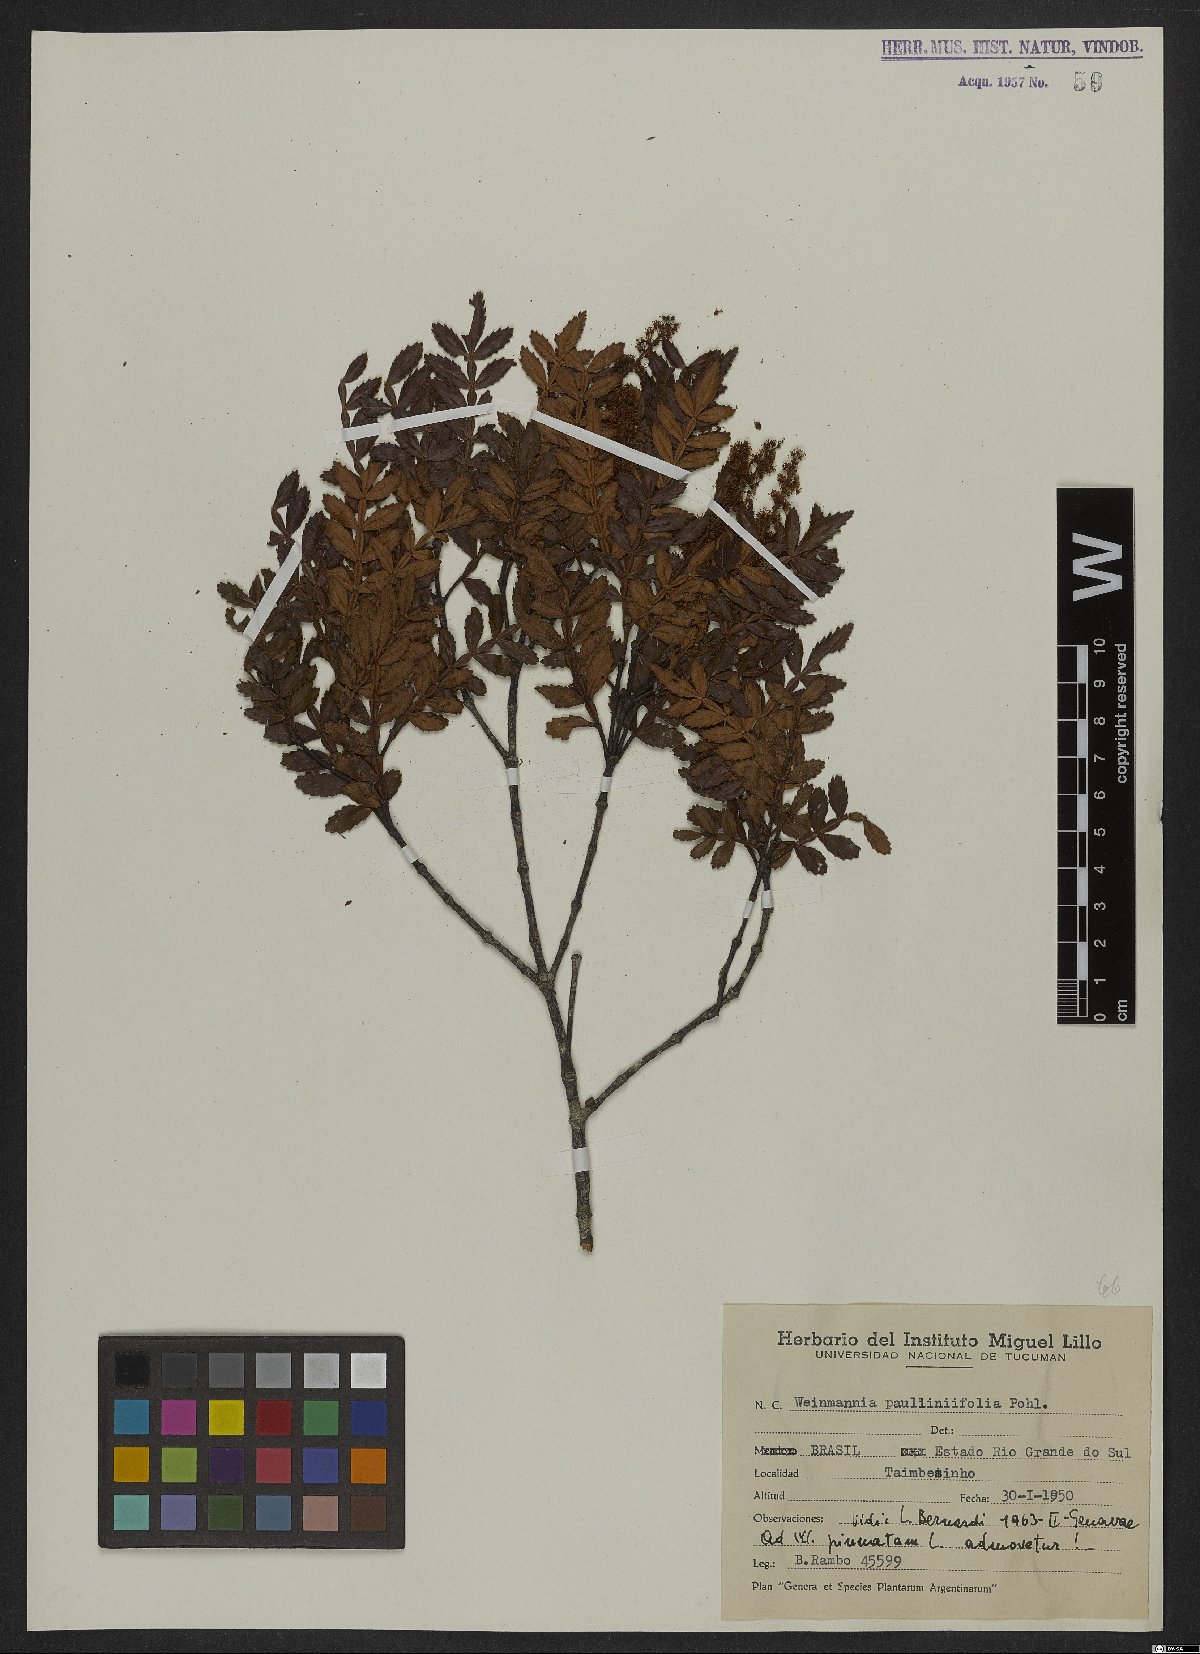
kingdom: Plantae
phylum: Tracheophyta
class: Magnoliopsida
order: Oxalidales
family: Cunoniaceae
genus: Weinmannia
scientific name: Weinmannia paullinifolia
